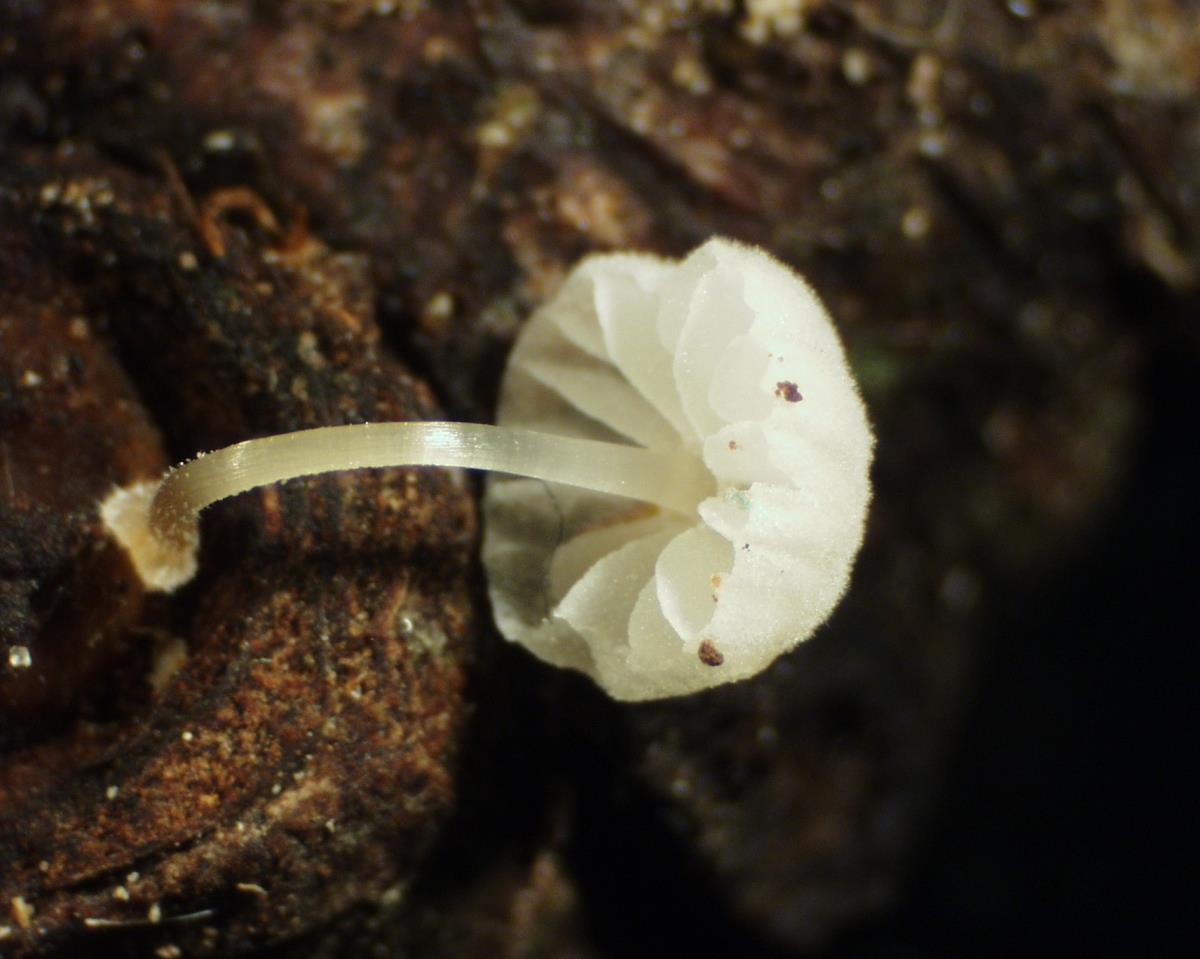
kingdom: Fungi
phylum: Basidiomycota
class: Agaricomycetes
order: Agaricales
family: Mycenaceae
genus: Mycena
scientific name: Mycena
